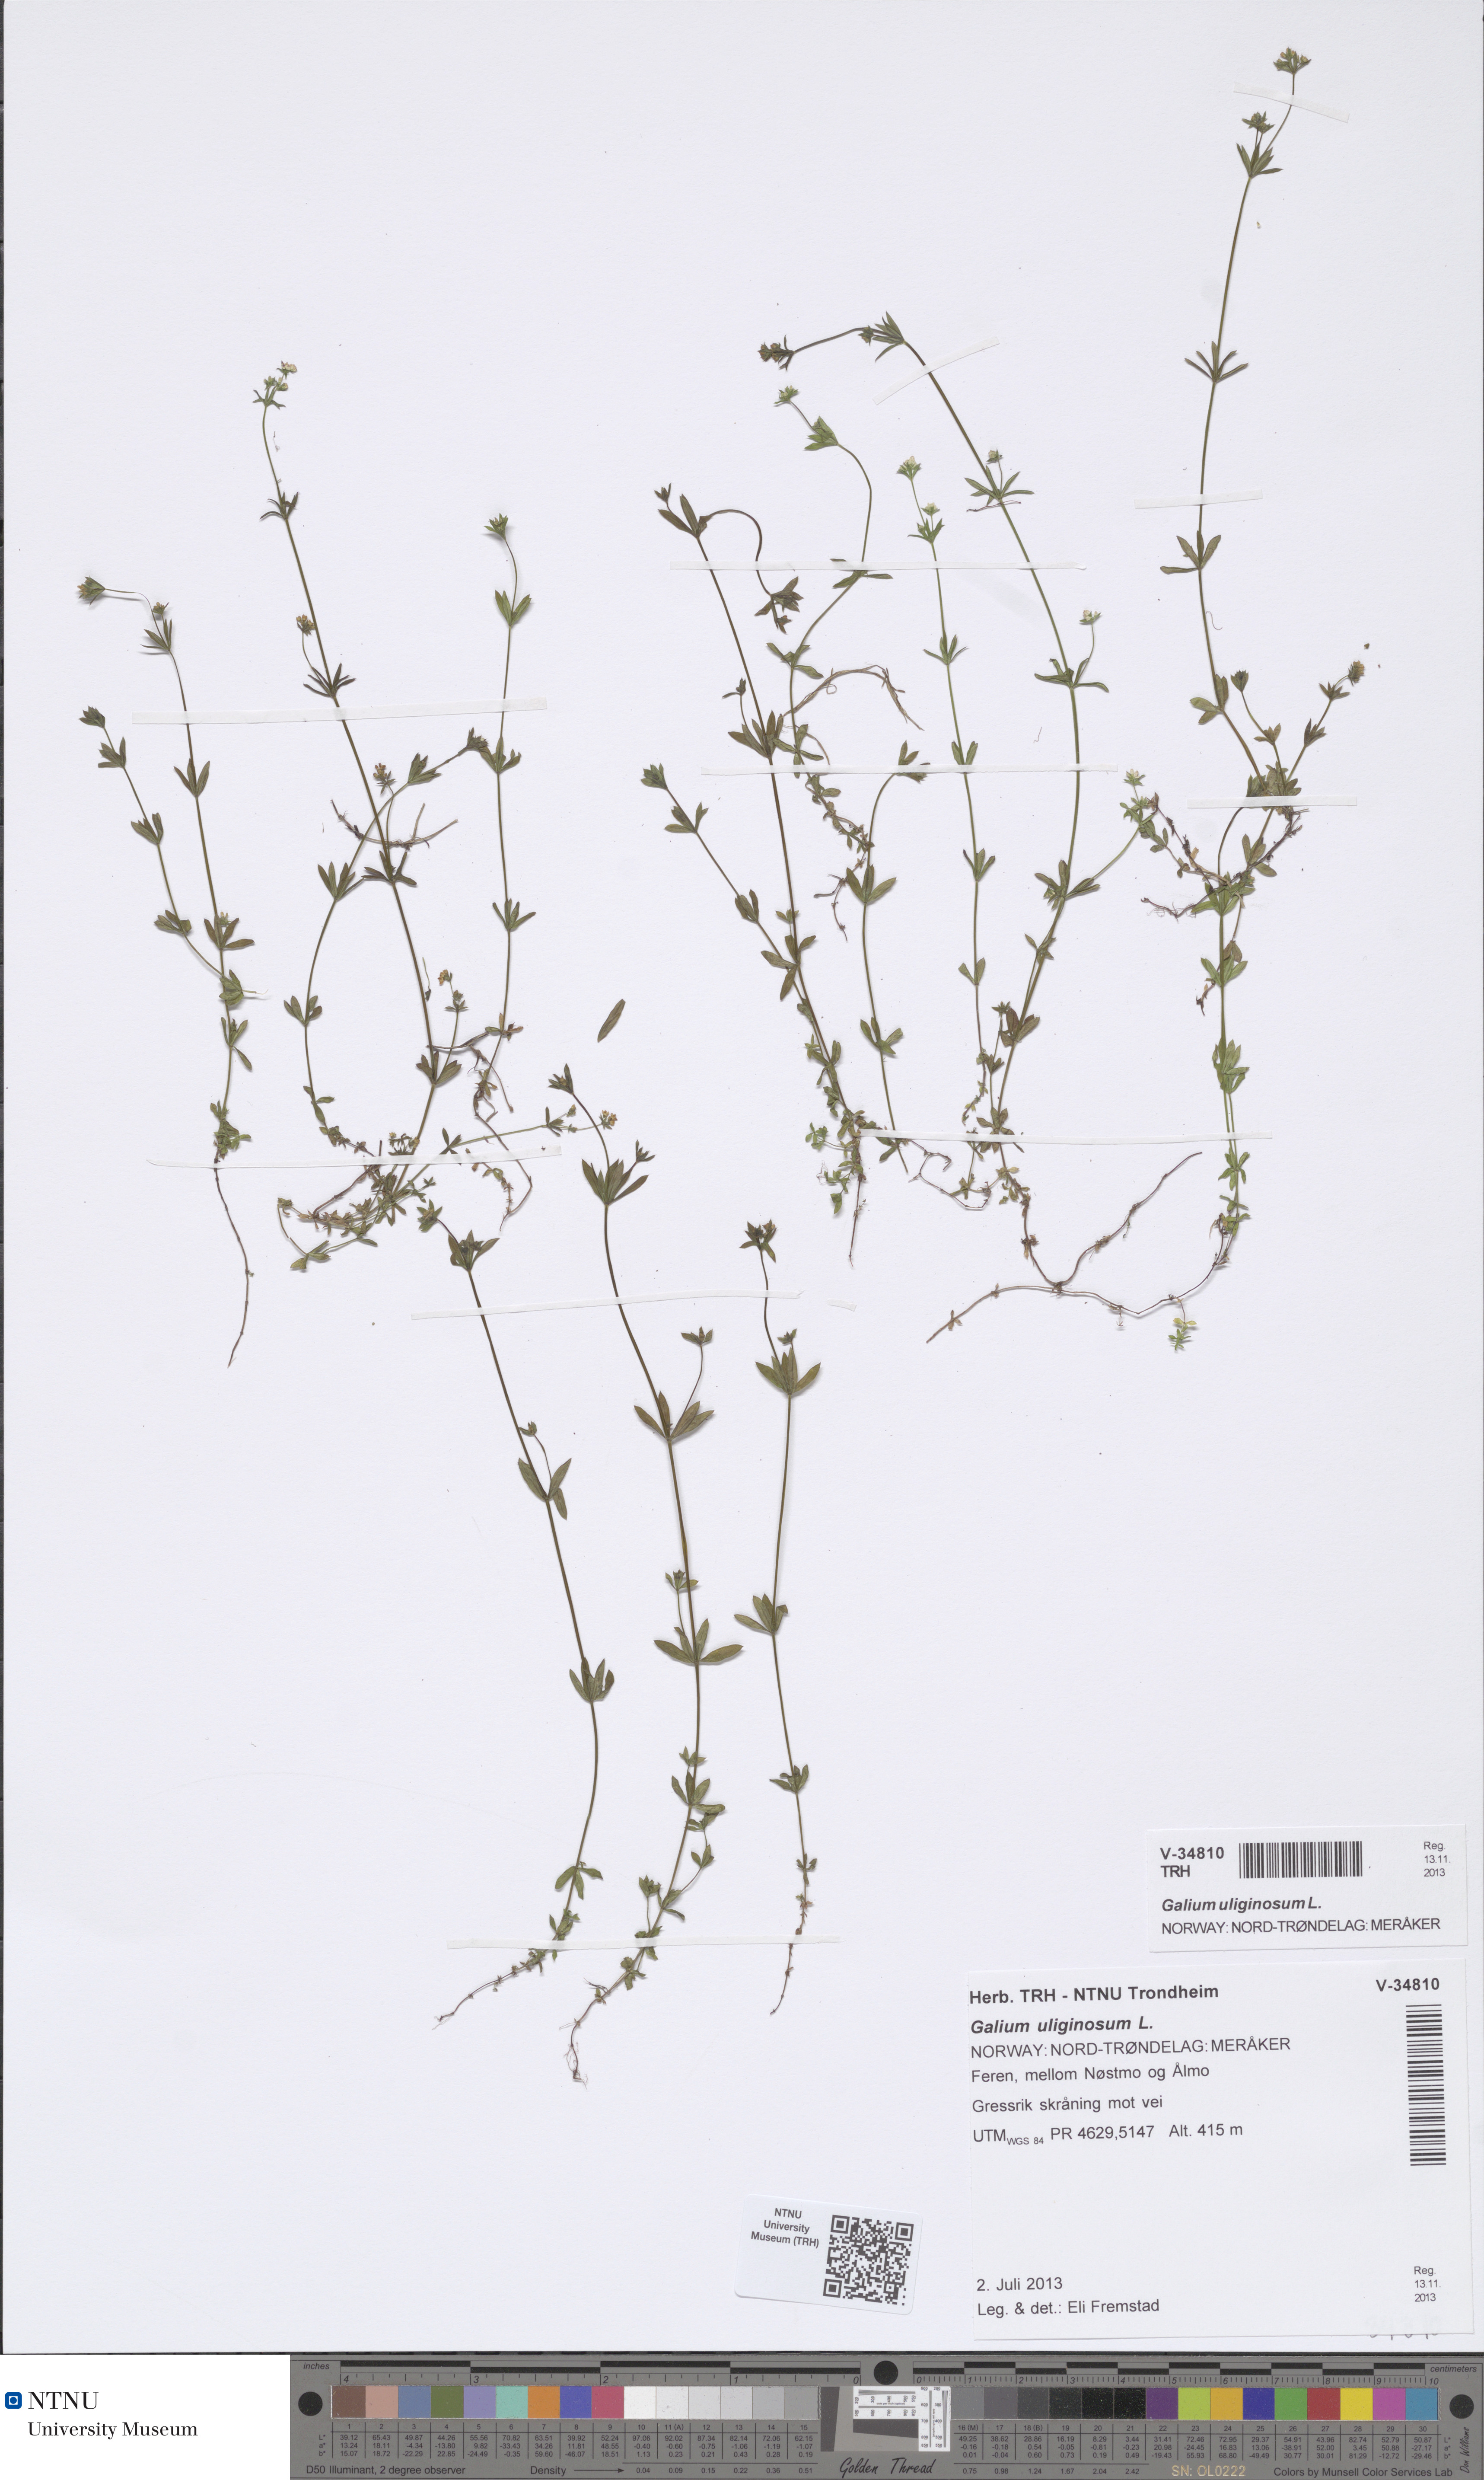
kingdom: Plantae
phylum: Tracheophyta
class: Magnoliopsida
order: Gentianales
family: Rubiaceae
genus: Galium
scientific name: Galium uliginosum
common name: Fen bedstraw
